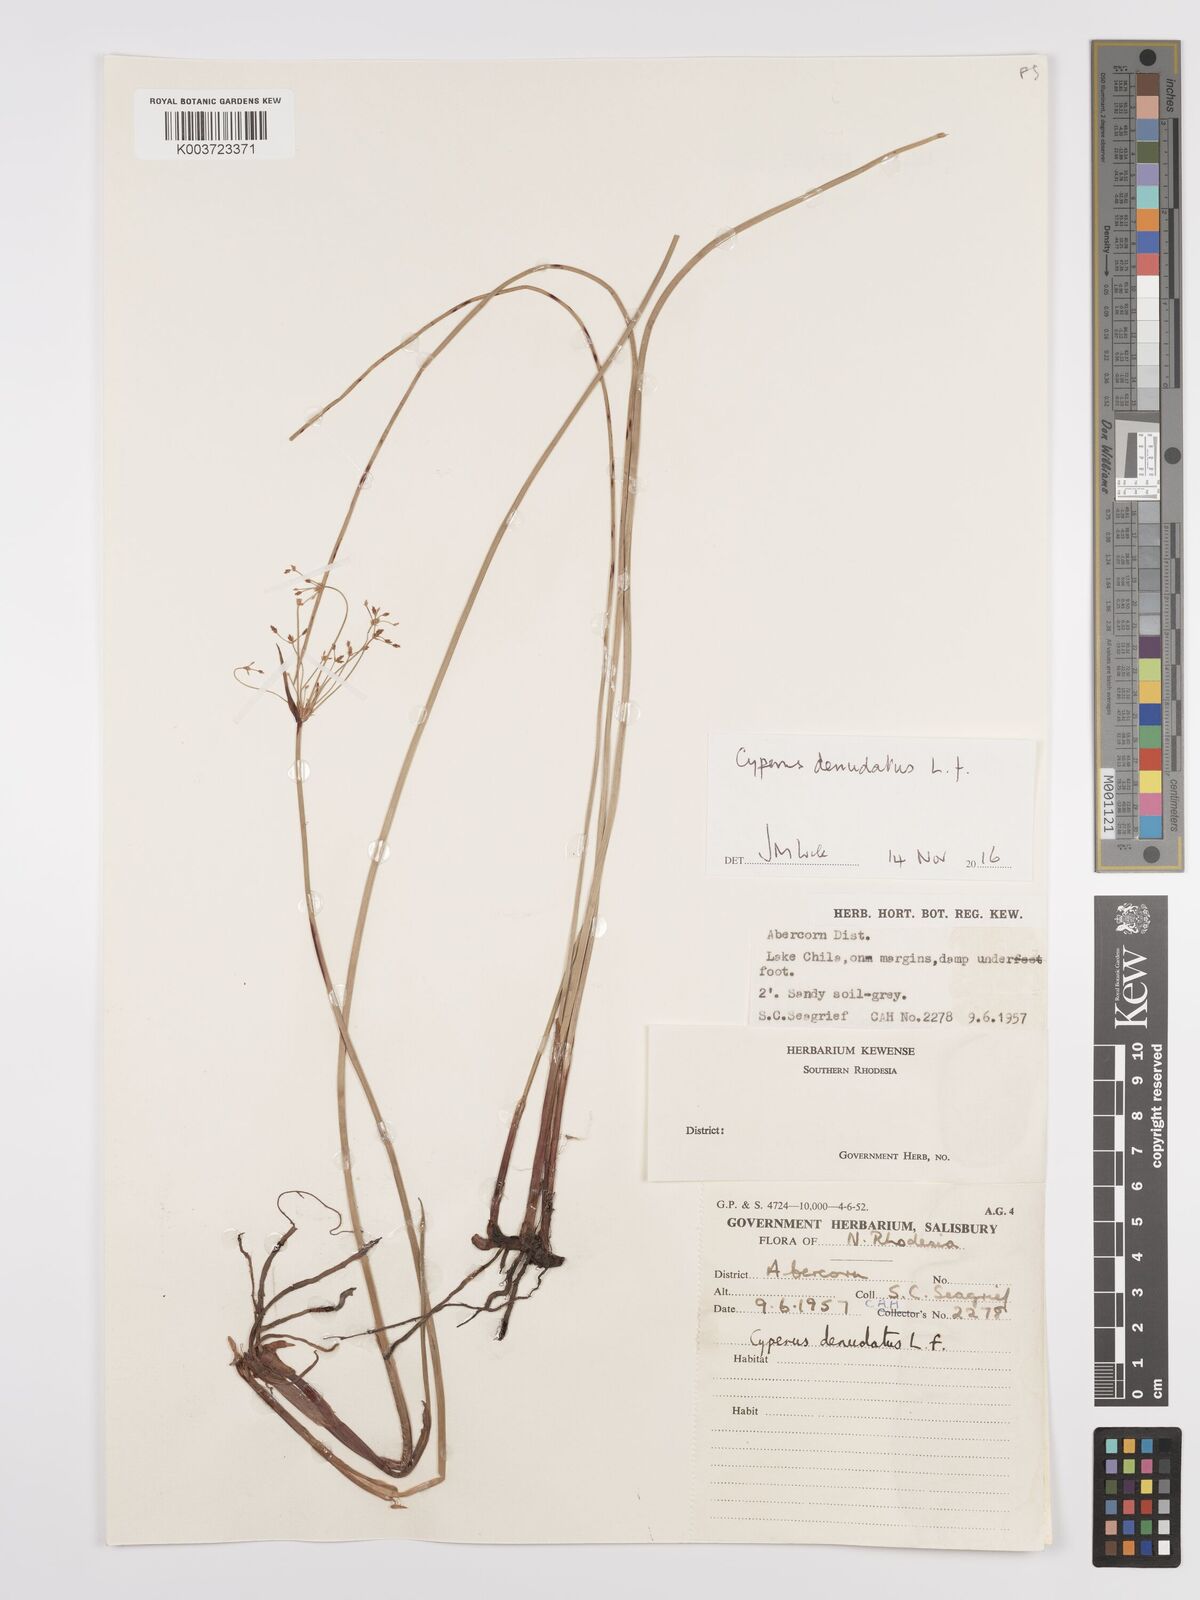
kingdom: Plantae
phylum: Tracheophyta
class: Liliopsida
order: Poales
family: Cyperaceae
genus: Cyperus
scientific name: Cyperus denudatus
